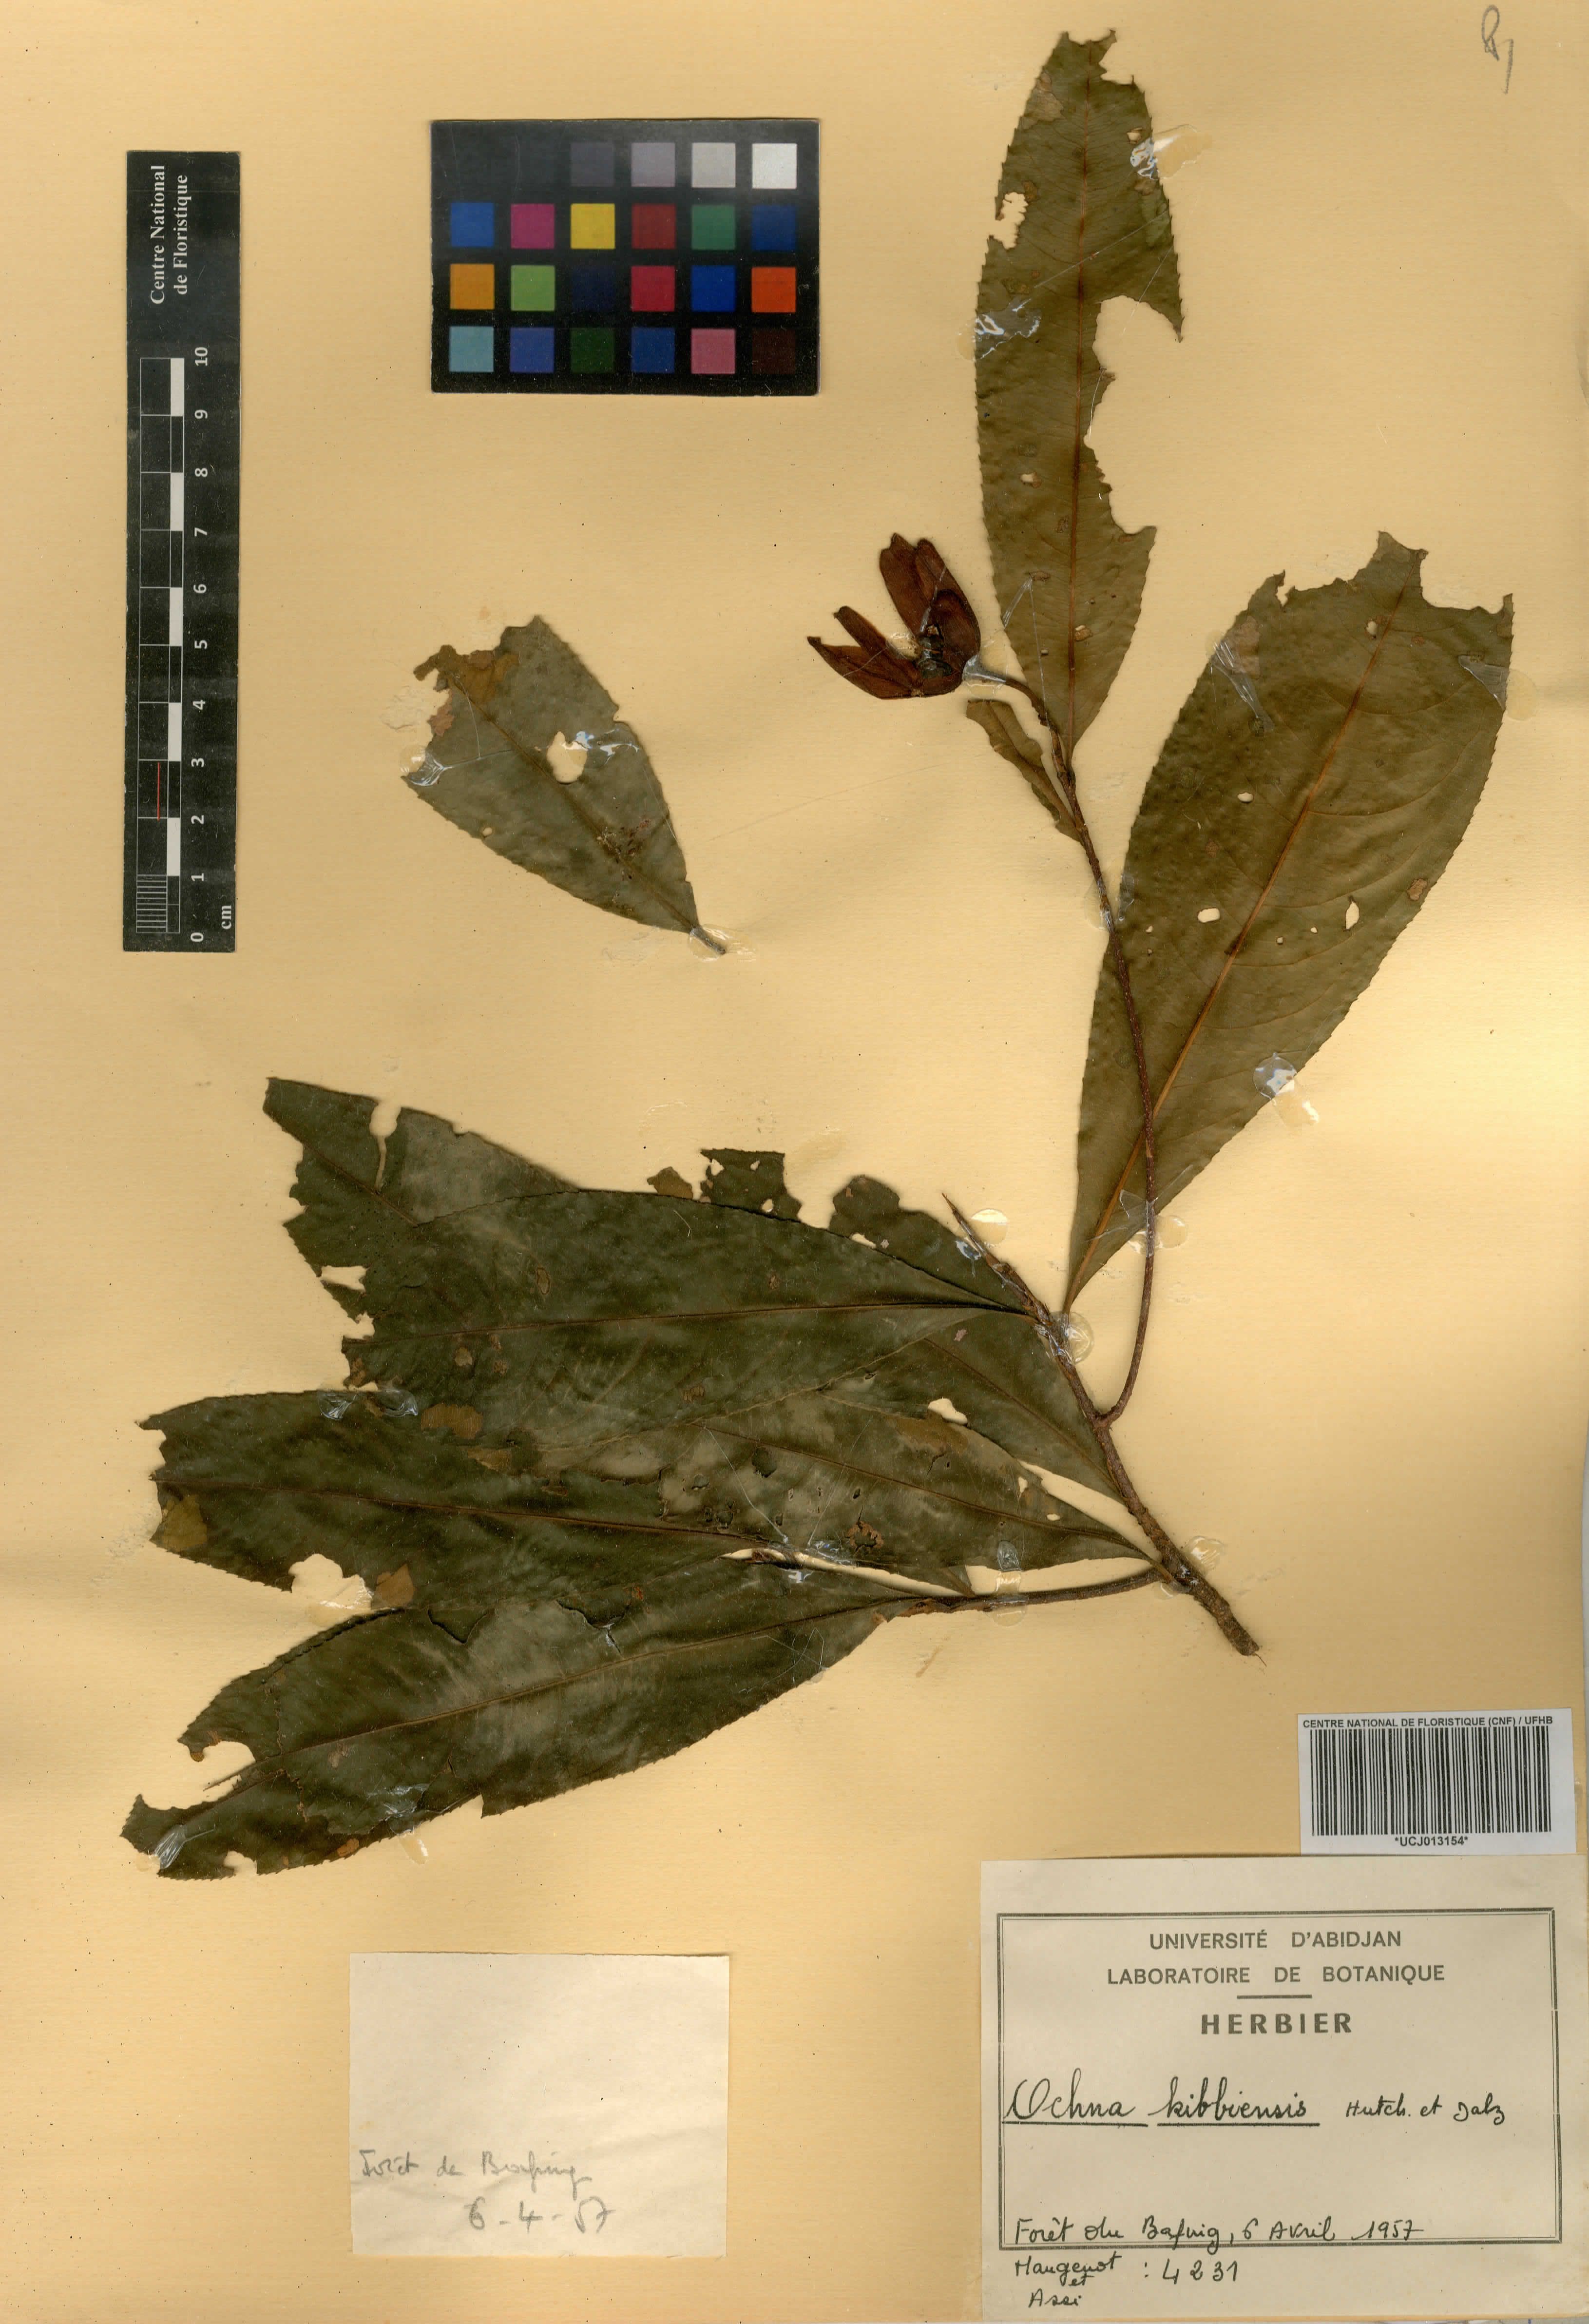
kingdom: Plantae
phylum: Tracheophyta
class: Magnoliopsida
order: Malpighiales
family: Ochnaceae
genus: Ochna
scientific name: Ochna kibbiensis
